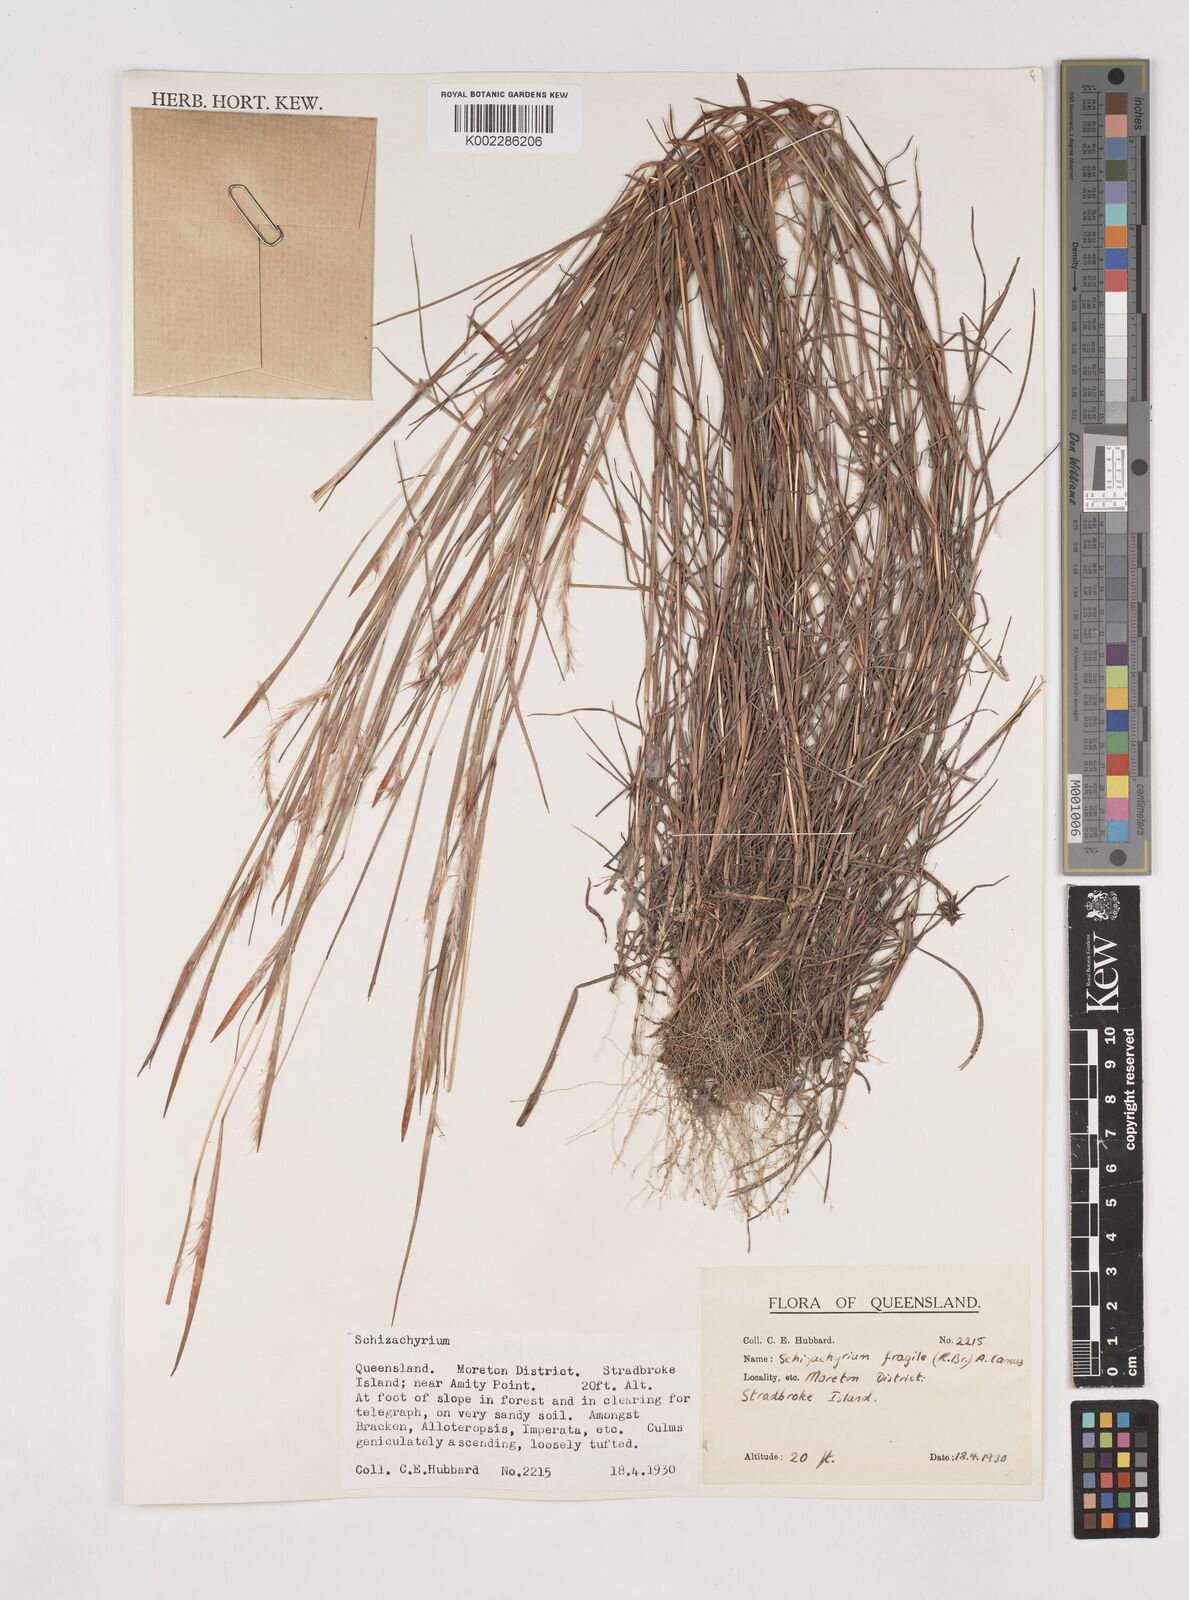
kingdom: Plantae
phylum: Tracheophyta
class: Liliopsida
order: Poales
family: Poaceae
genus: Schizachyrium
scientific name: Schizachyrium fragile
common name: Red spathe grass
